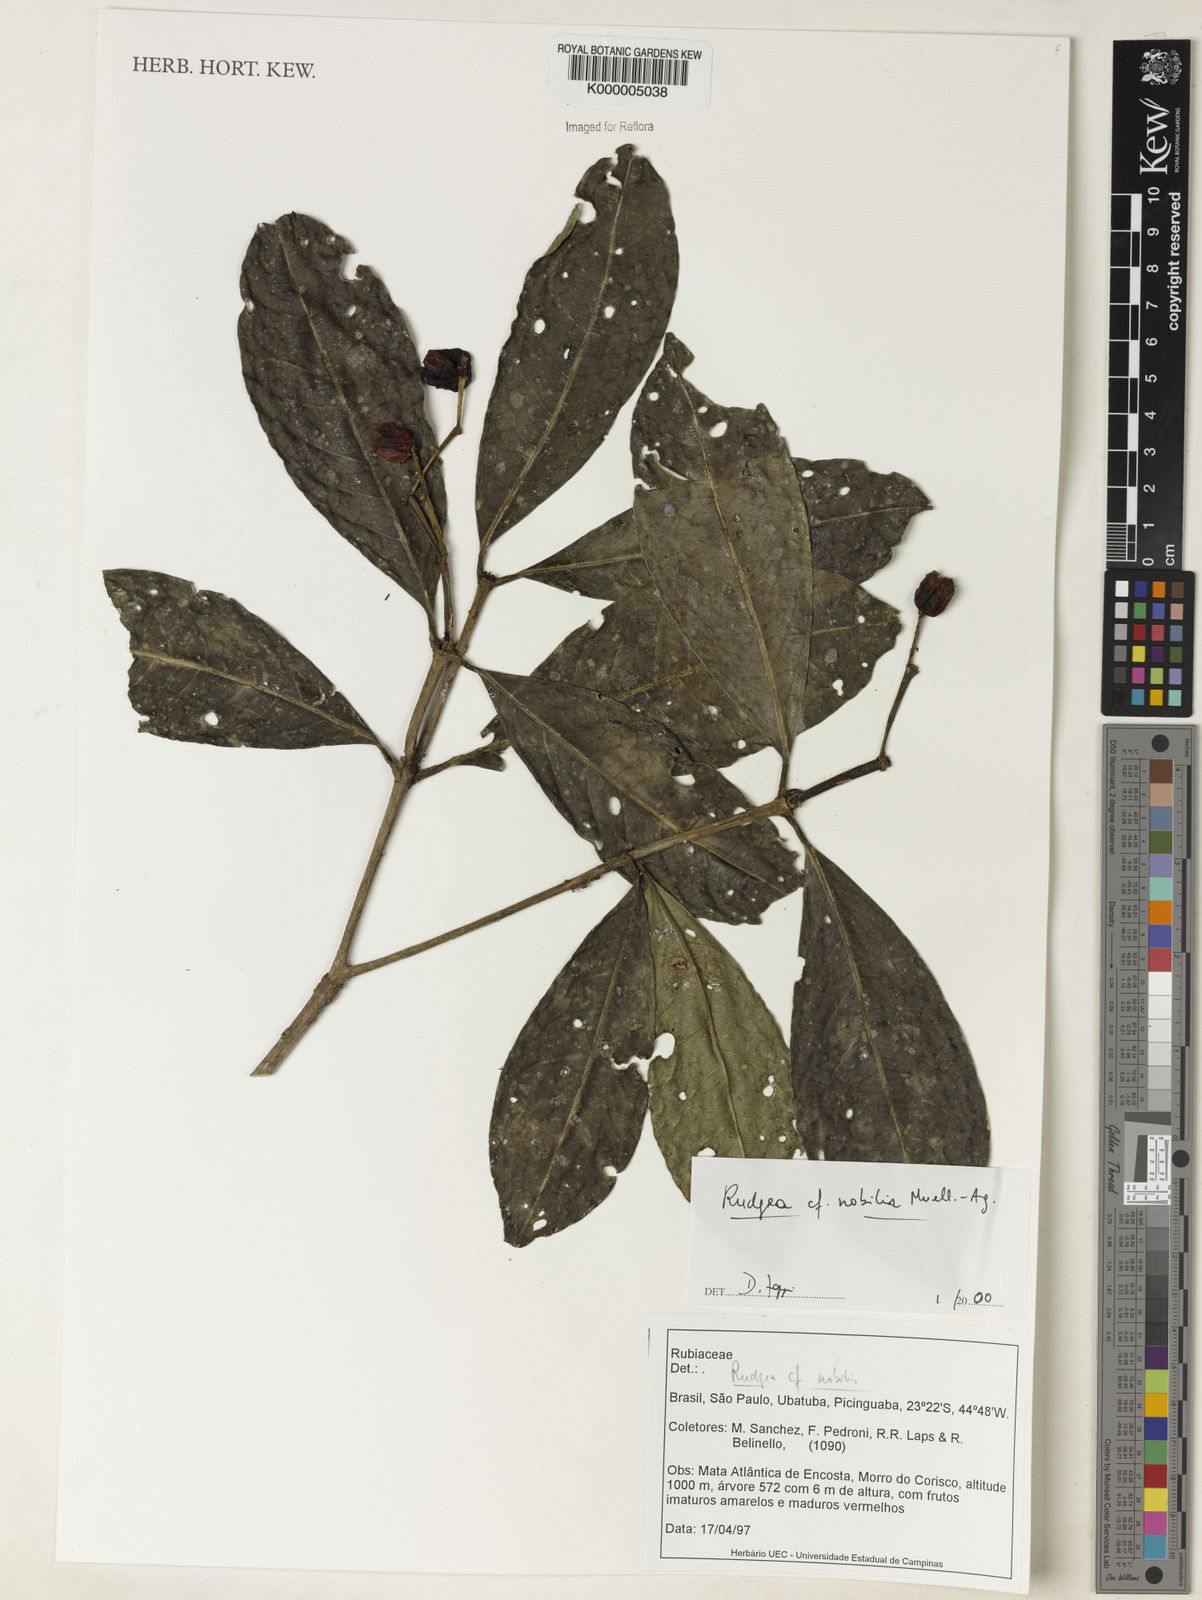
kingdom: Plantae
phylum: Tracheophyta
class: Magnoliopsida
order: Gentianales
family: Rubiaceae
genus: Rudgea
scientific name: Rudgea nobilis
